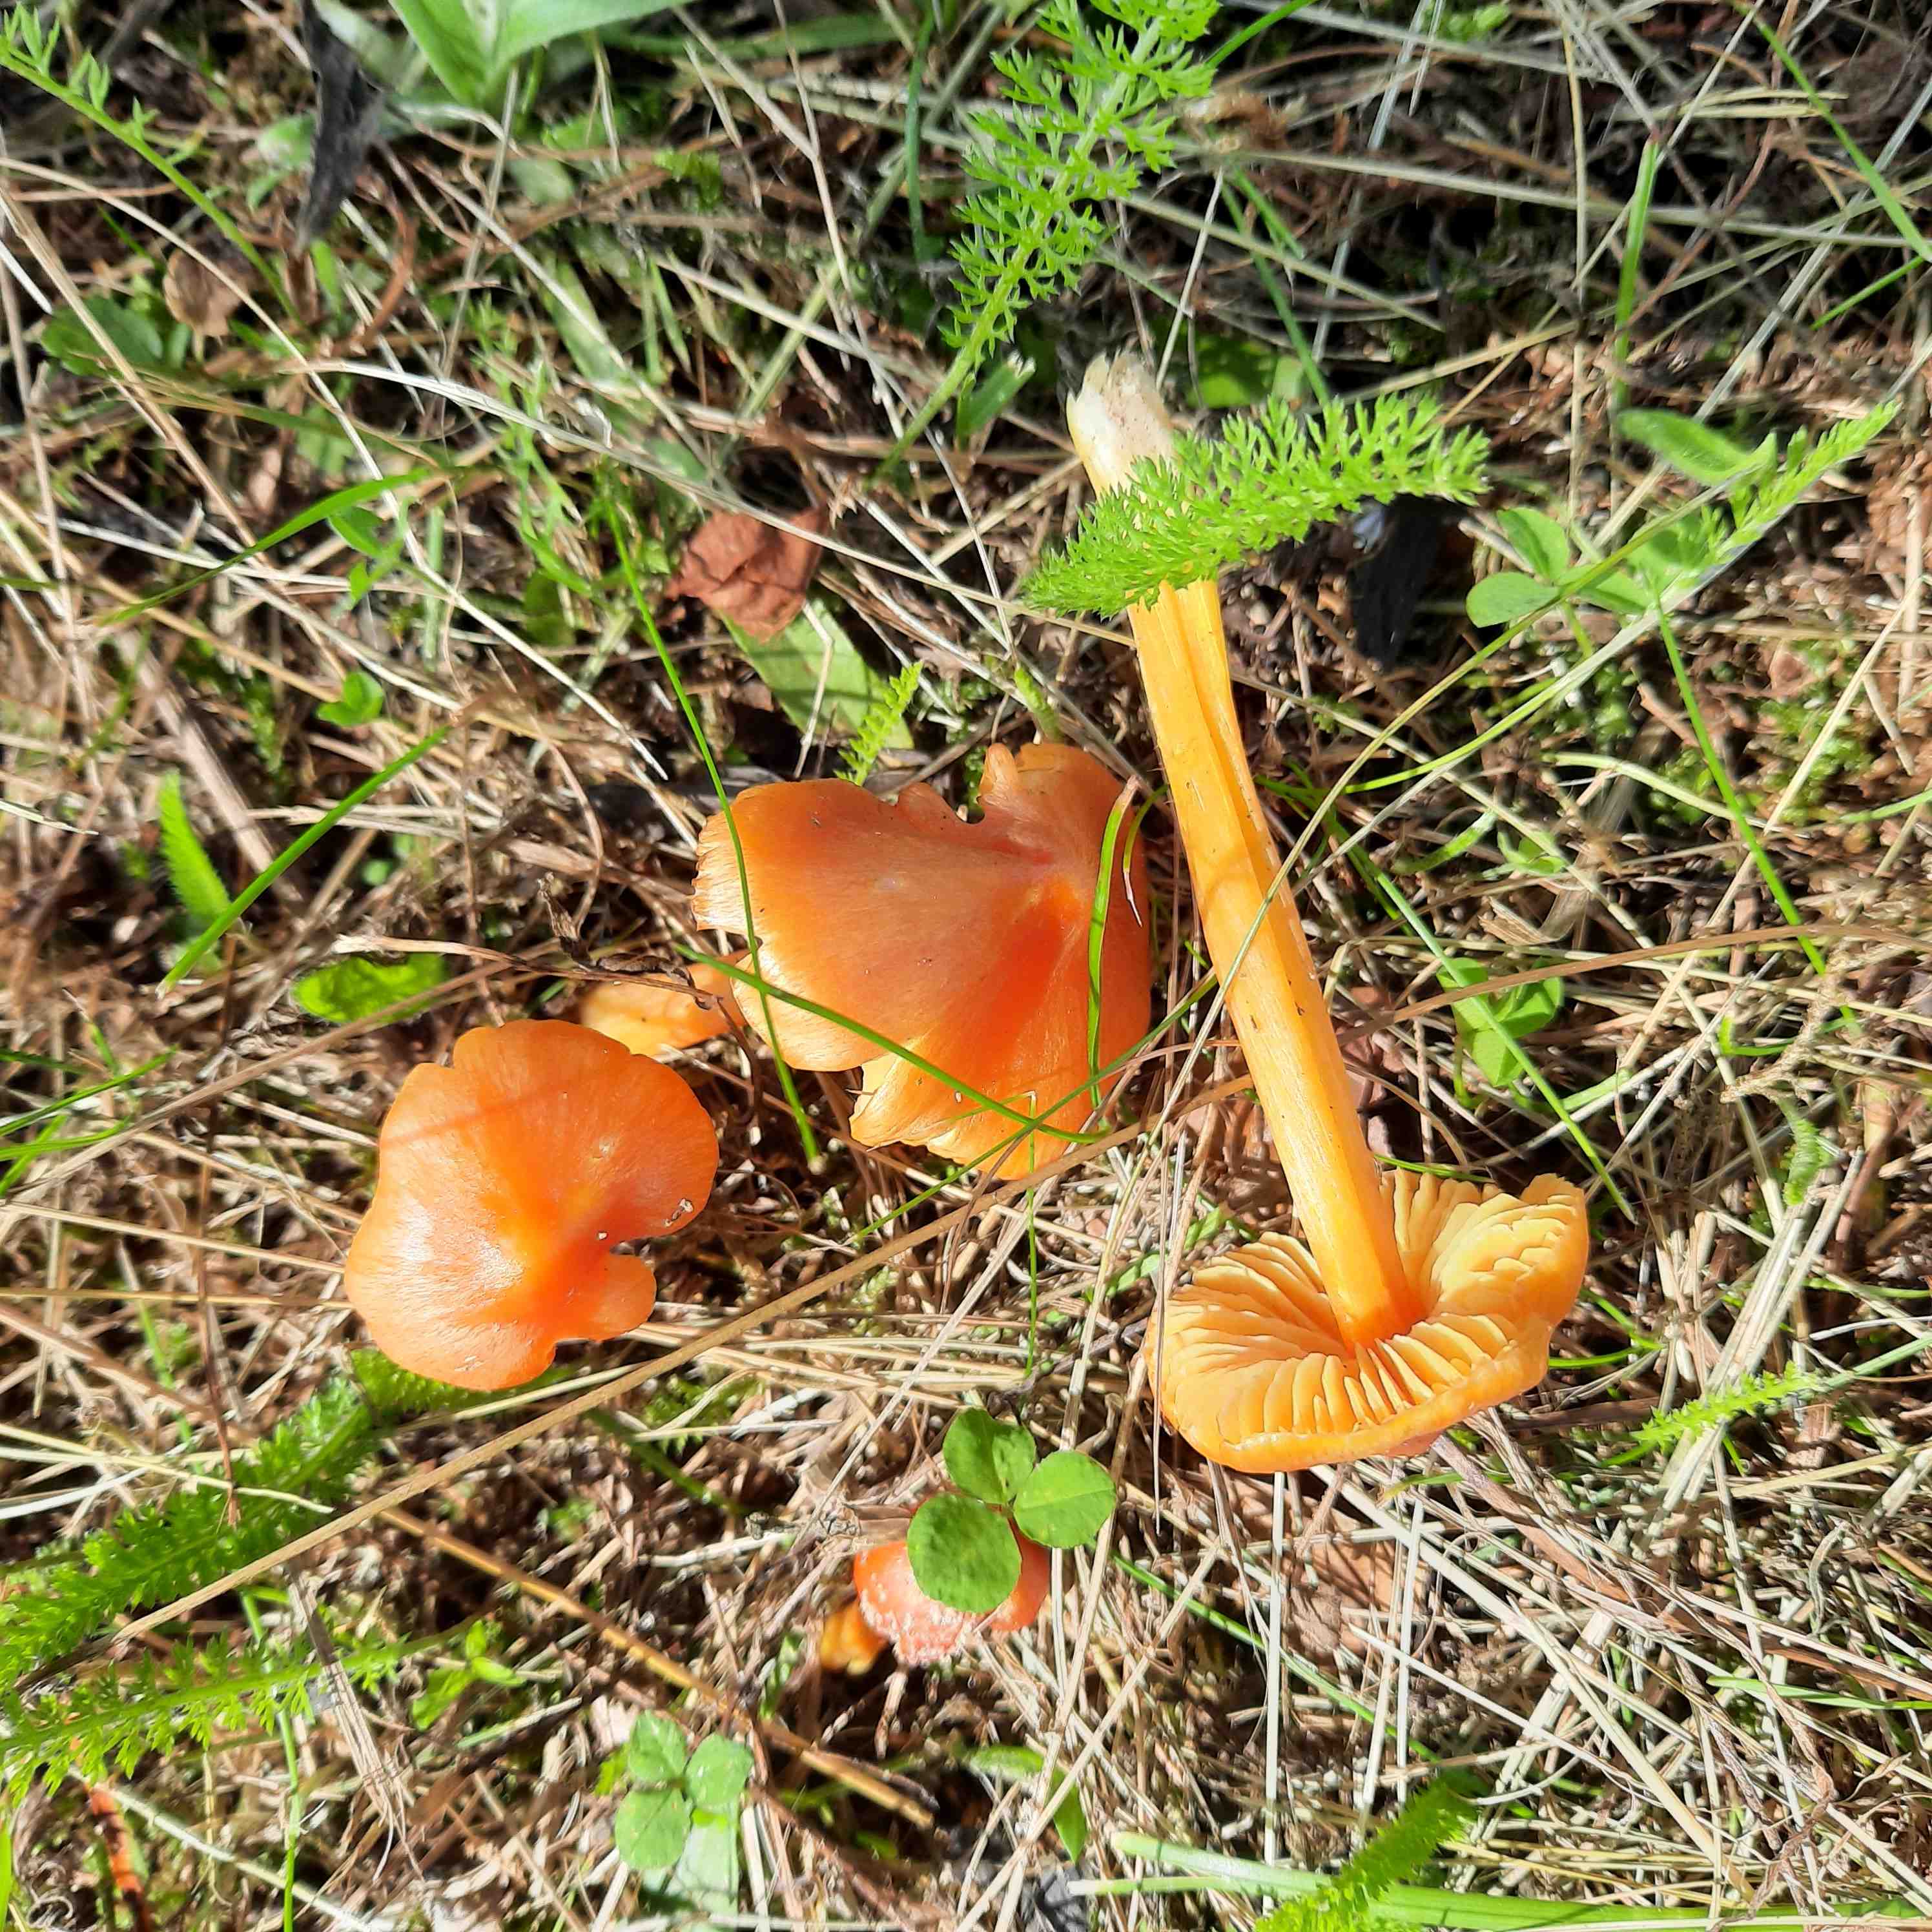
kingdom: Fungi
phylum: Basidiomycota
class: Agaricomycetes
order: Agaricales
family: Hygrophoraceae
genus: Hygrocybe
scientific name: Hygrocybe
